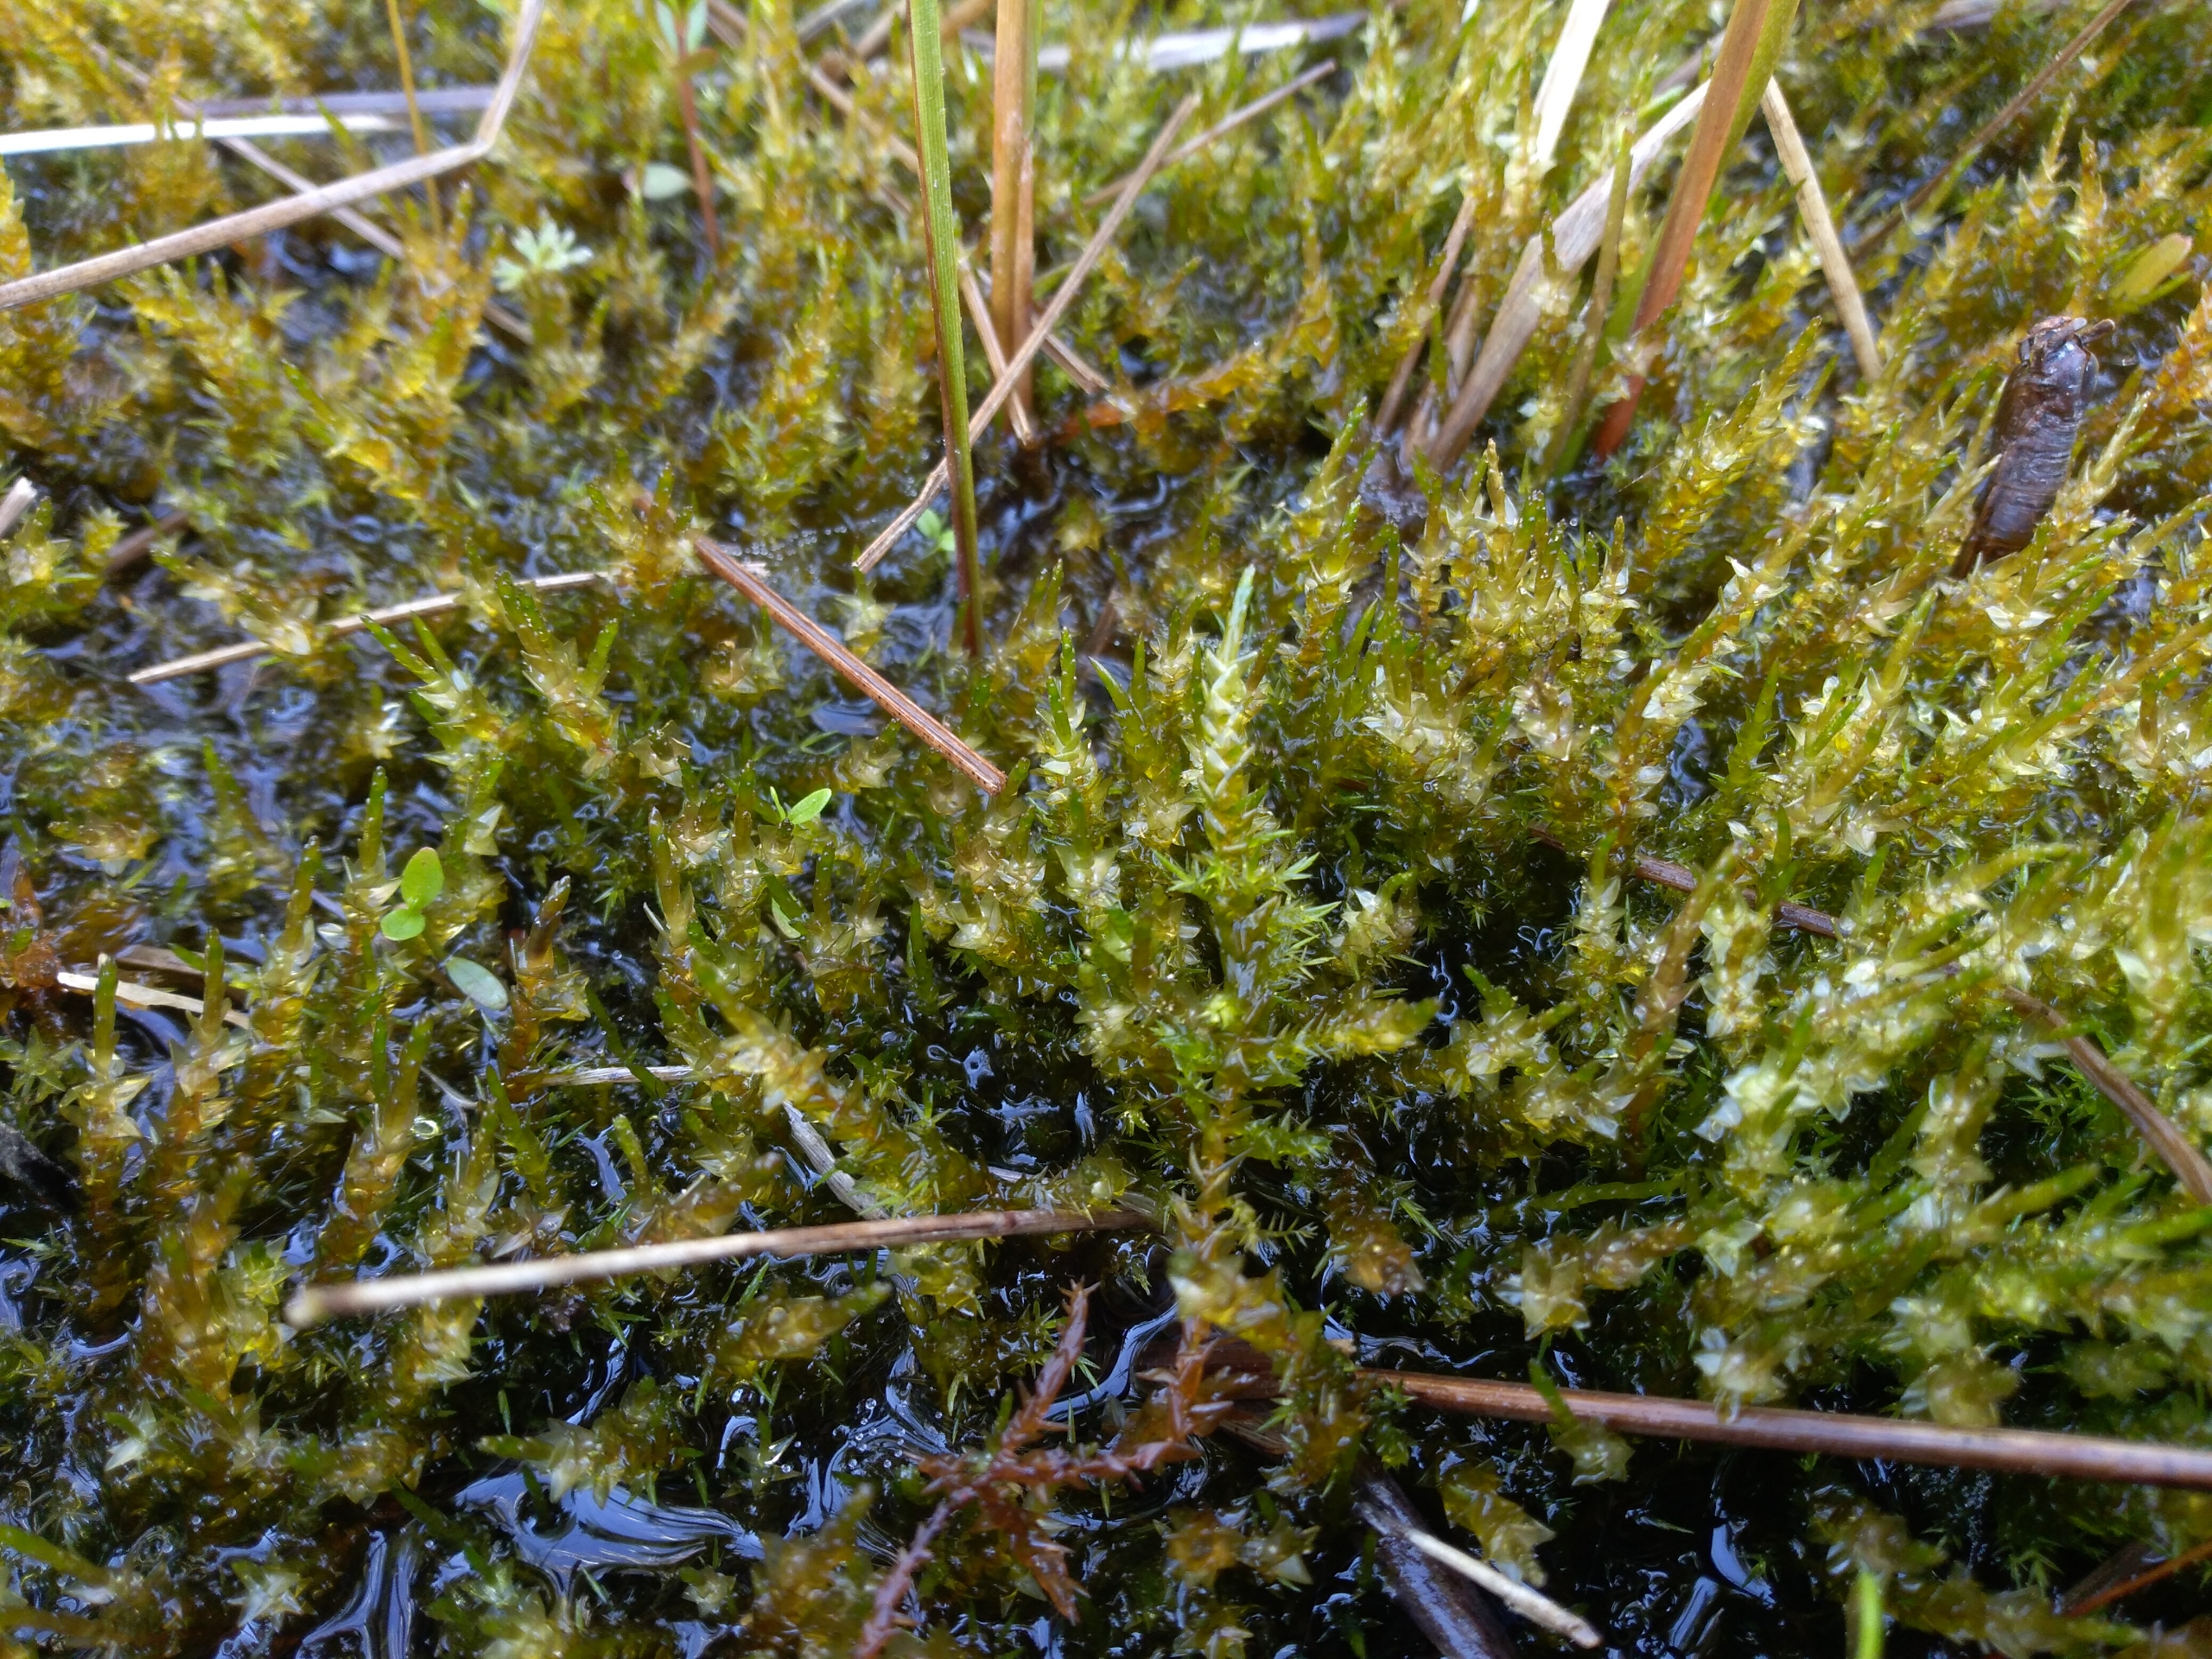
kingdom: Plantae
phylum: Bryophyta
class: Bryopsida
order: Hypnales
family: Calliergonaceae
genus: Calliergon
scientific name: Calliergon giganteum
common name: Stor skebladsmos
